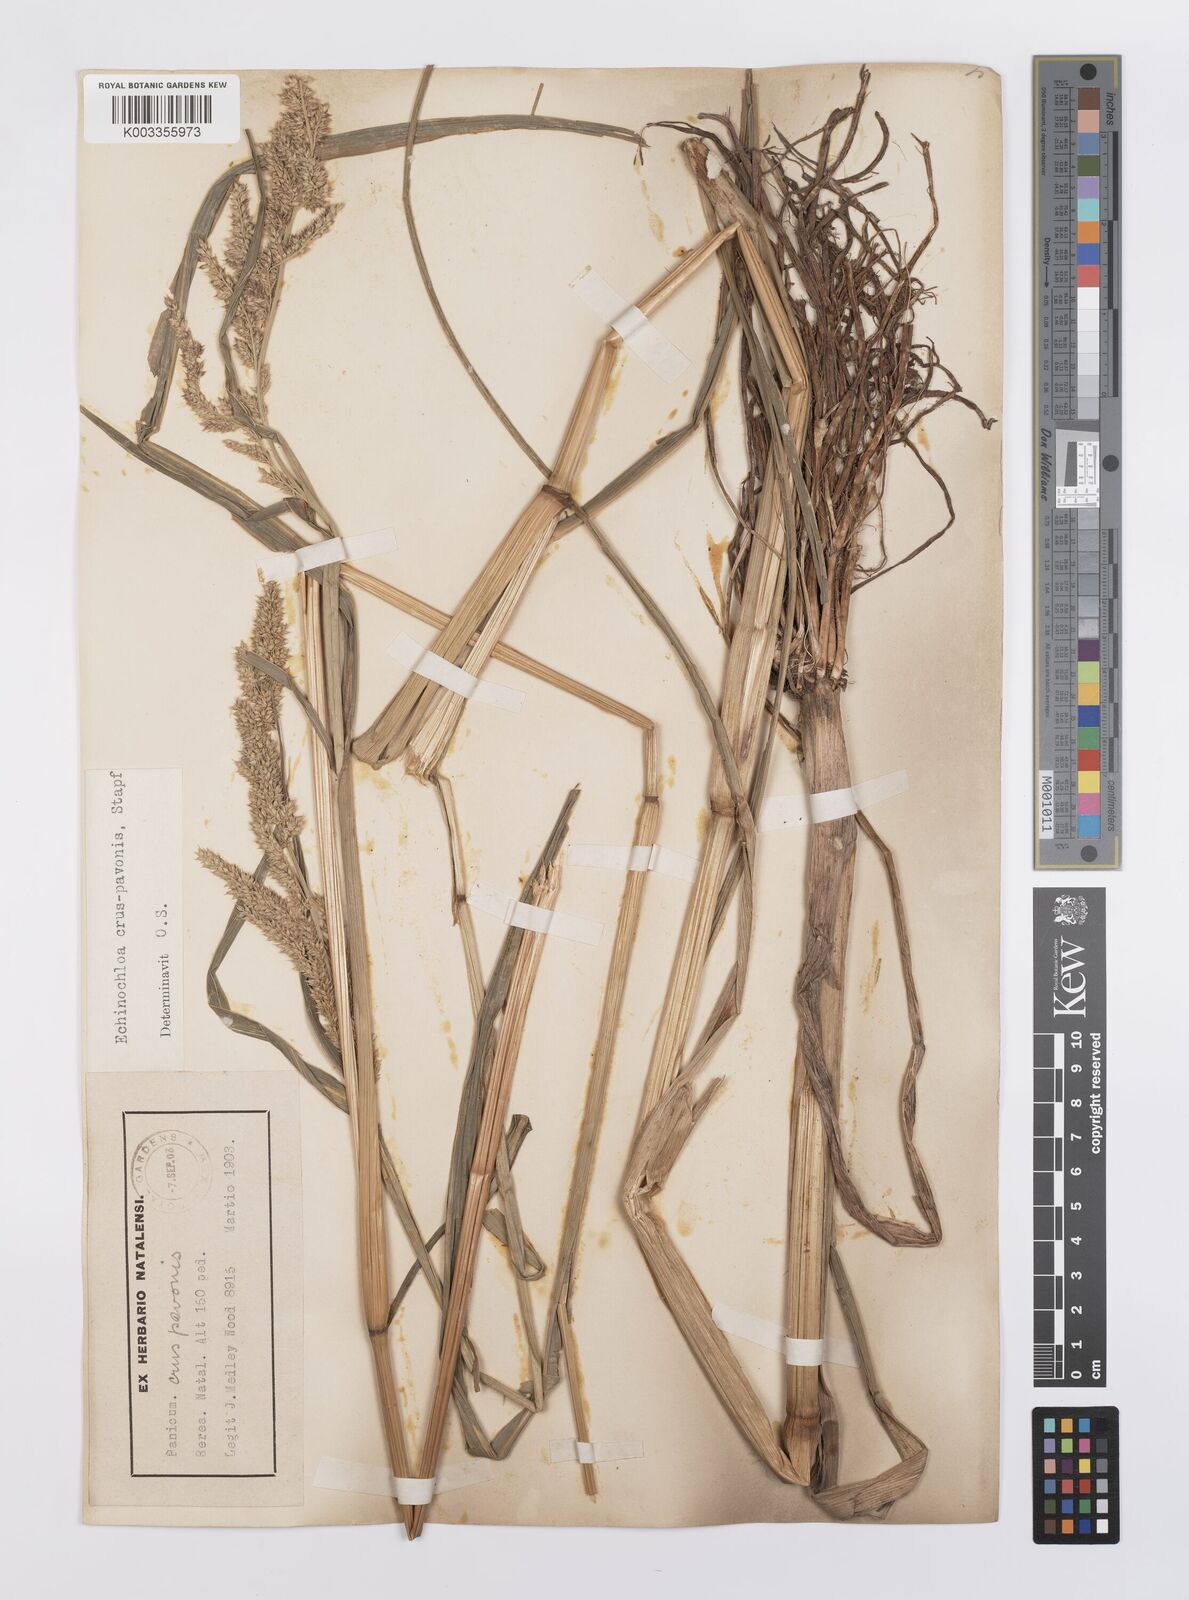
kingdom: Plantae
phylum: Tracheophyta
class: Liliopsida
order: Poales
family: Poaceae
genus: Echinochloa
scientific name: Echinochloa crus-pavonis
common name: Gulf cockspur grass
